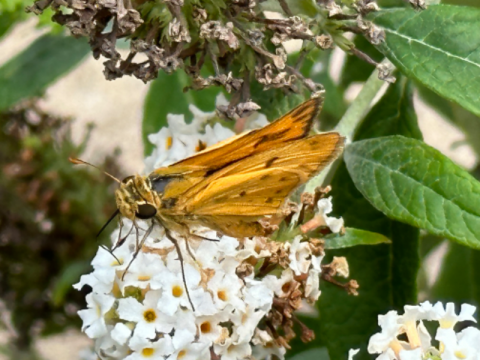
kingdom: Animalia
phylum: Arthropoda
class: Insecta
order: Lepidoptera
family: Hesperiidae
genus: Hylephila
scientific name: Hylephila phyleus
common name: Fiery Skipper
